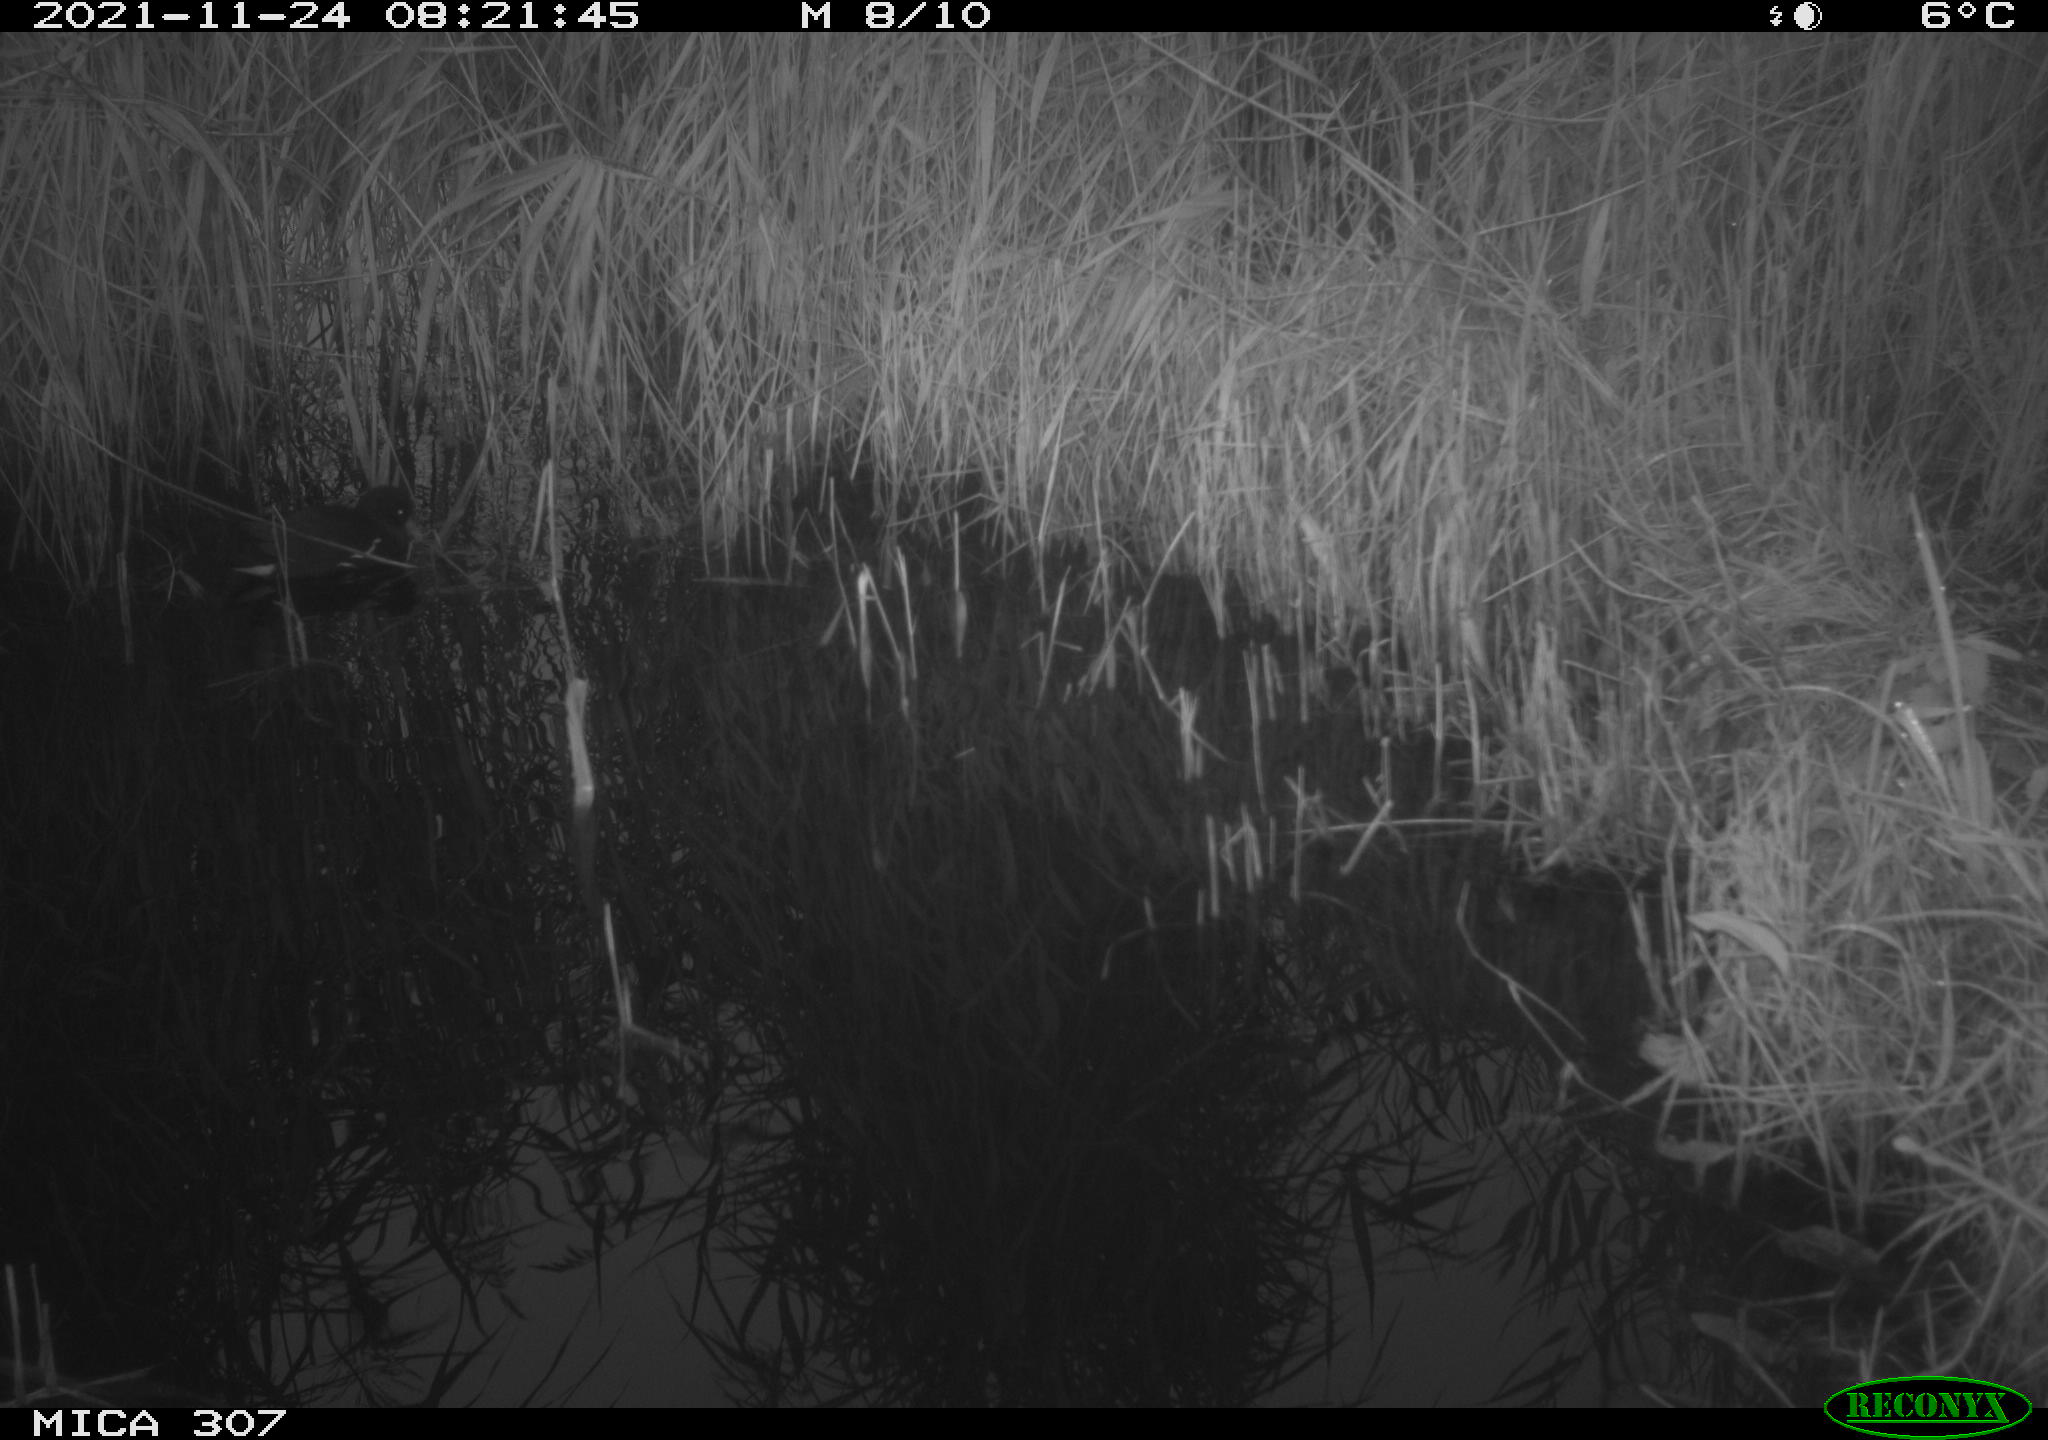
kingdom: Animalia
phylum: Chordata
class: Aves
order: Gruiformes
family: Rallidae
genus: Gallinula
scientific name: Gallinula chloropus
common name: Common moorhen
